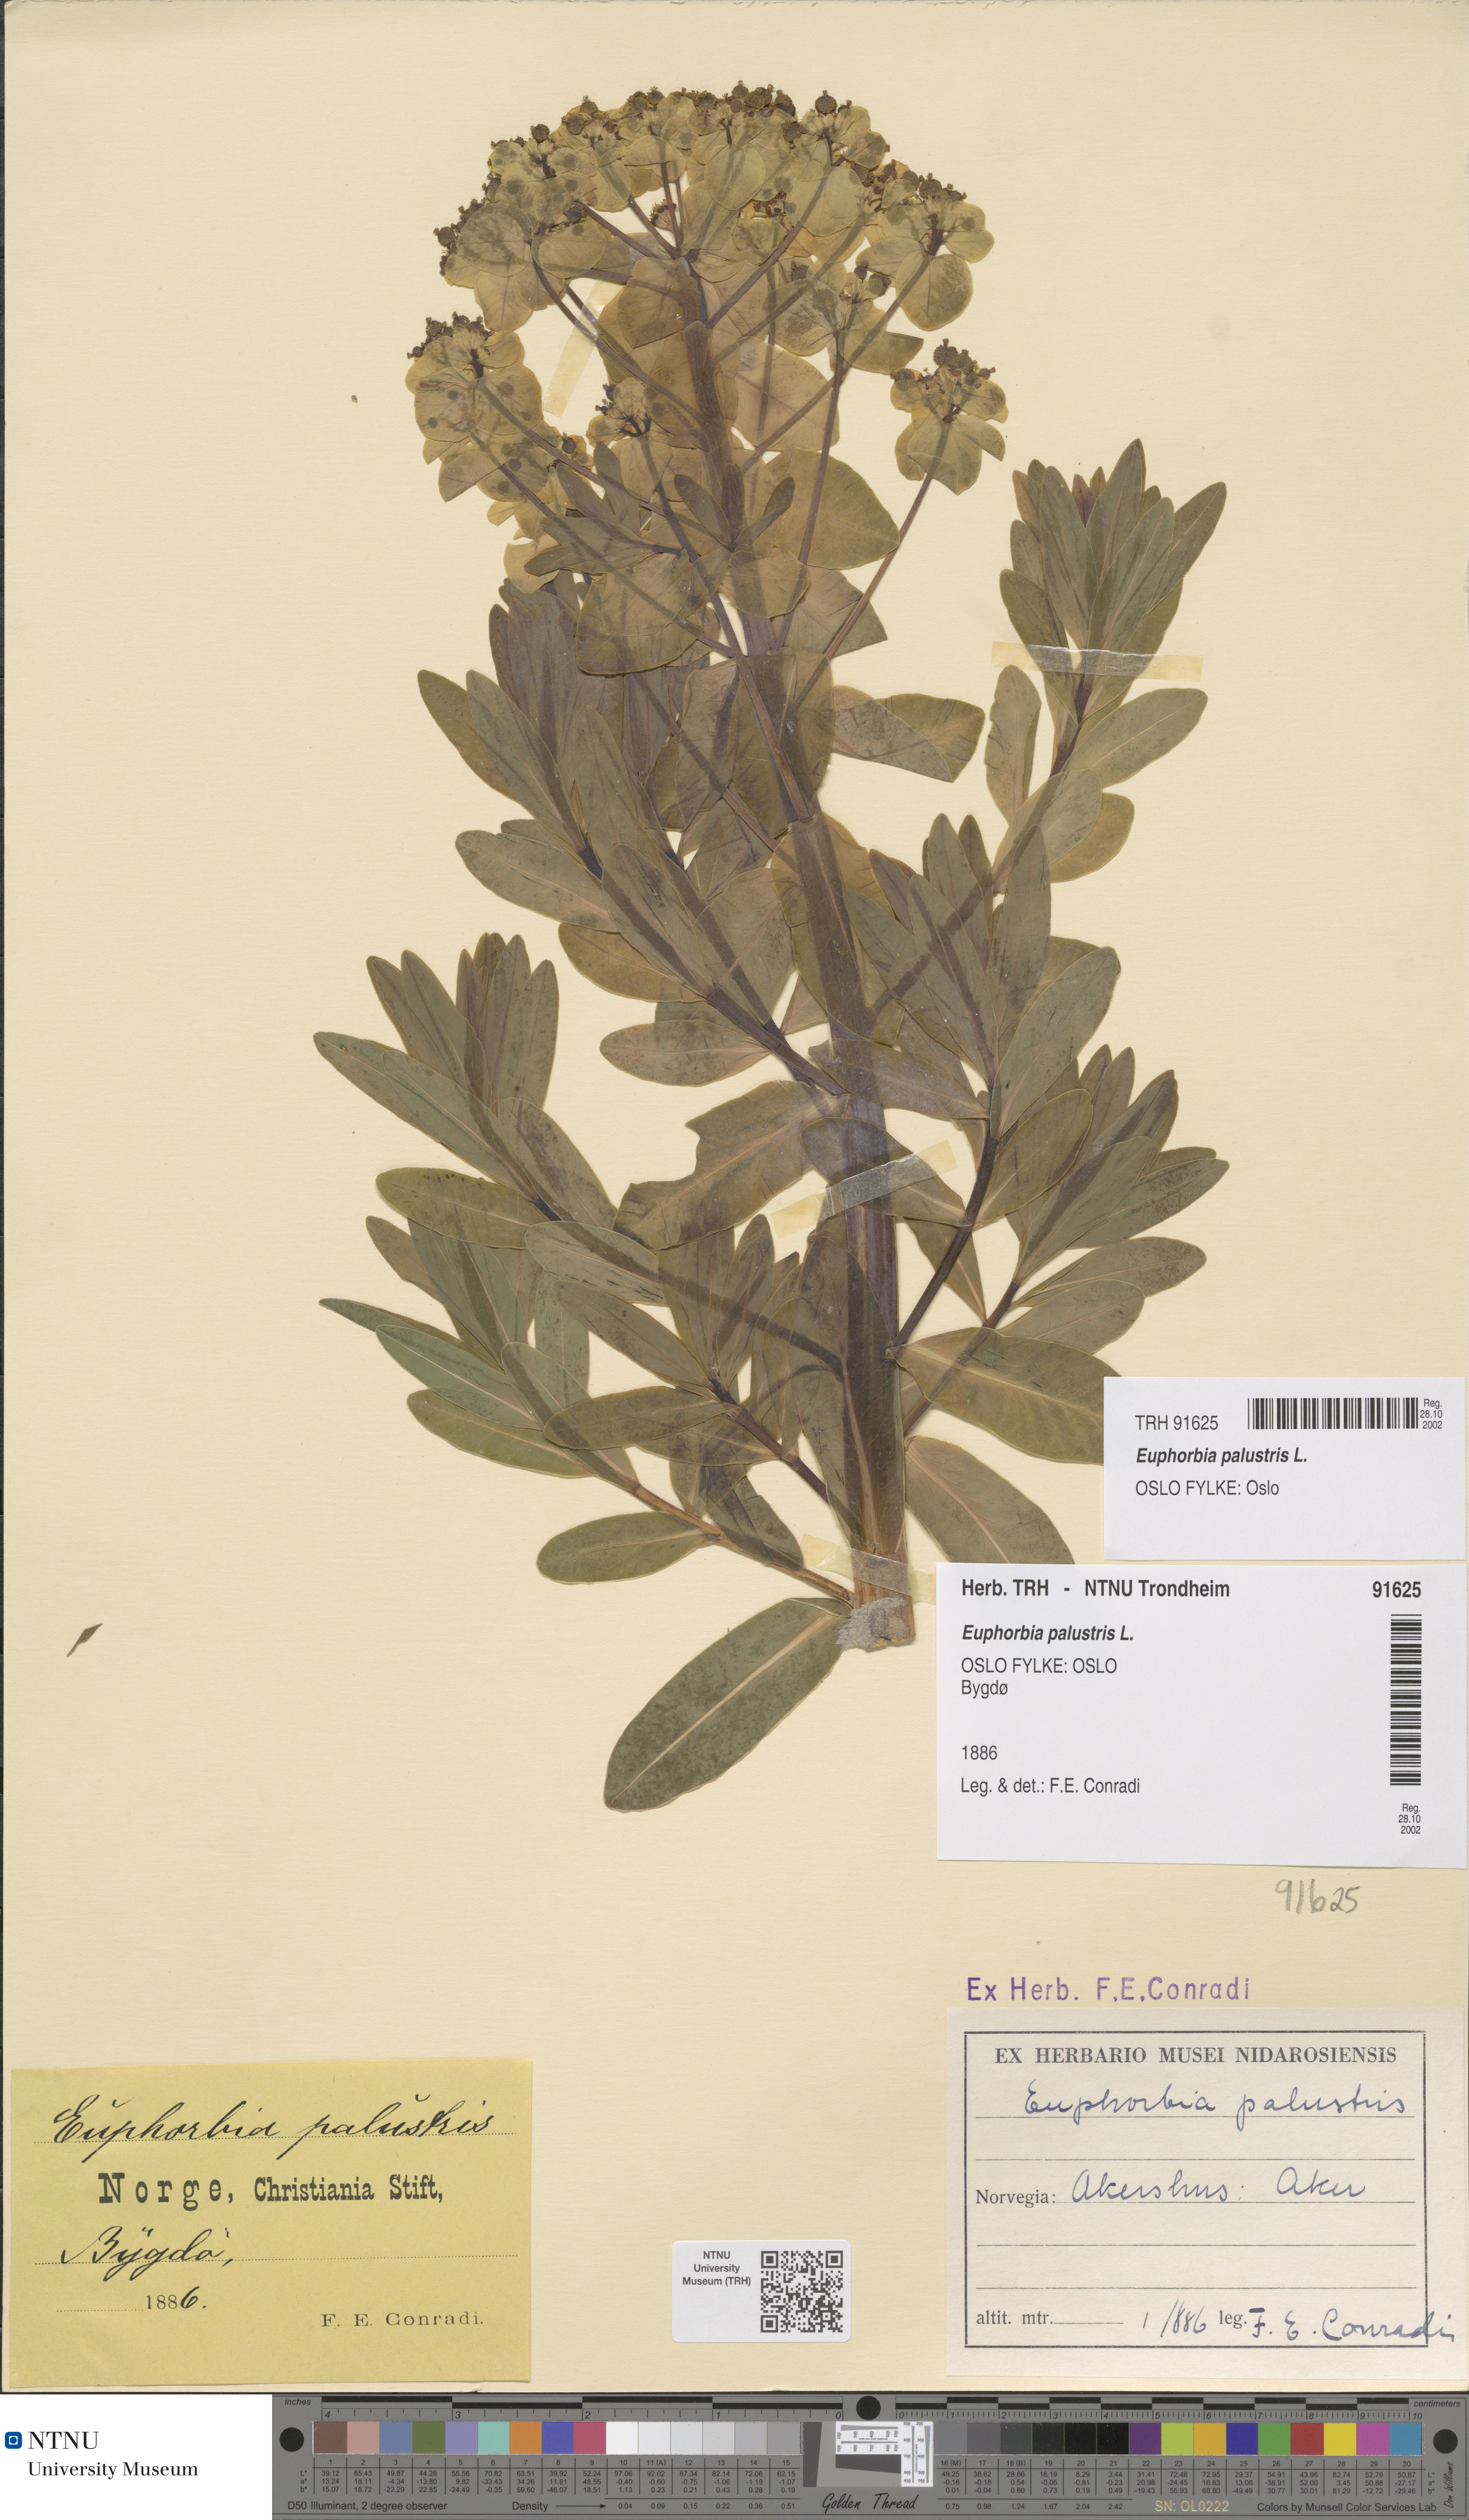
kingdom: Plantae
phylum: Tracheophyta
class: Magnoliopsida
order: Malpighiales
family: Euphorbiaceae
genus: Euphorbia
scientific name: Euphorbia palustris
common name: Marsh spurge
